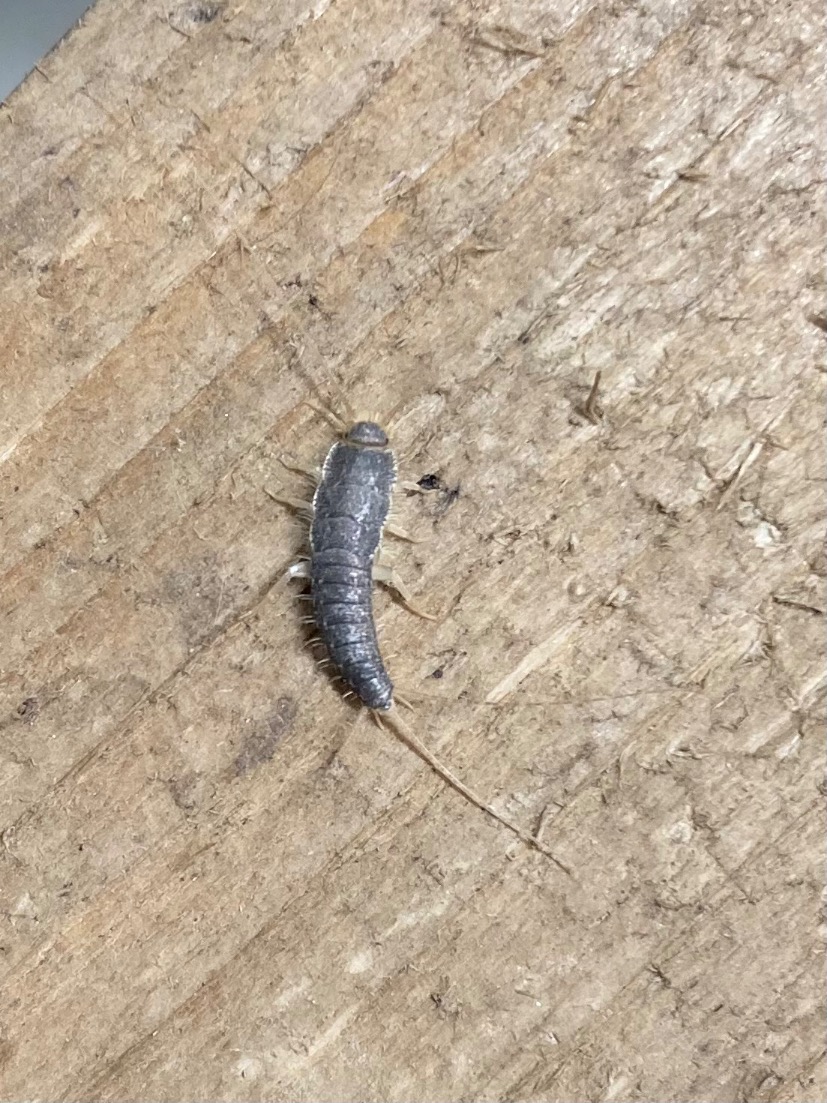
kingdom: Animalia
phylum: Arthropoda
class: Insecta
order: Zygentoma
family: Lepismatidae
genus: Ctenolepisma
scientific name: Ctenolepisma longicaudatum
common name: Skægget sølvkræ
